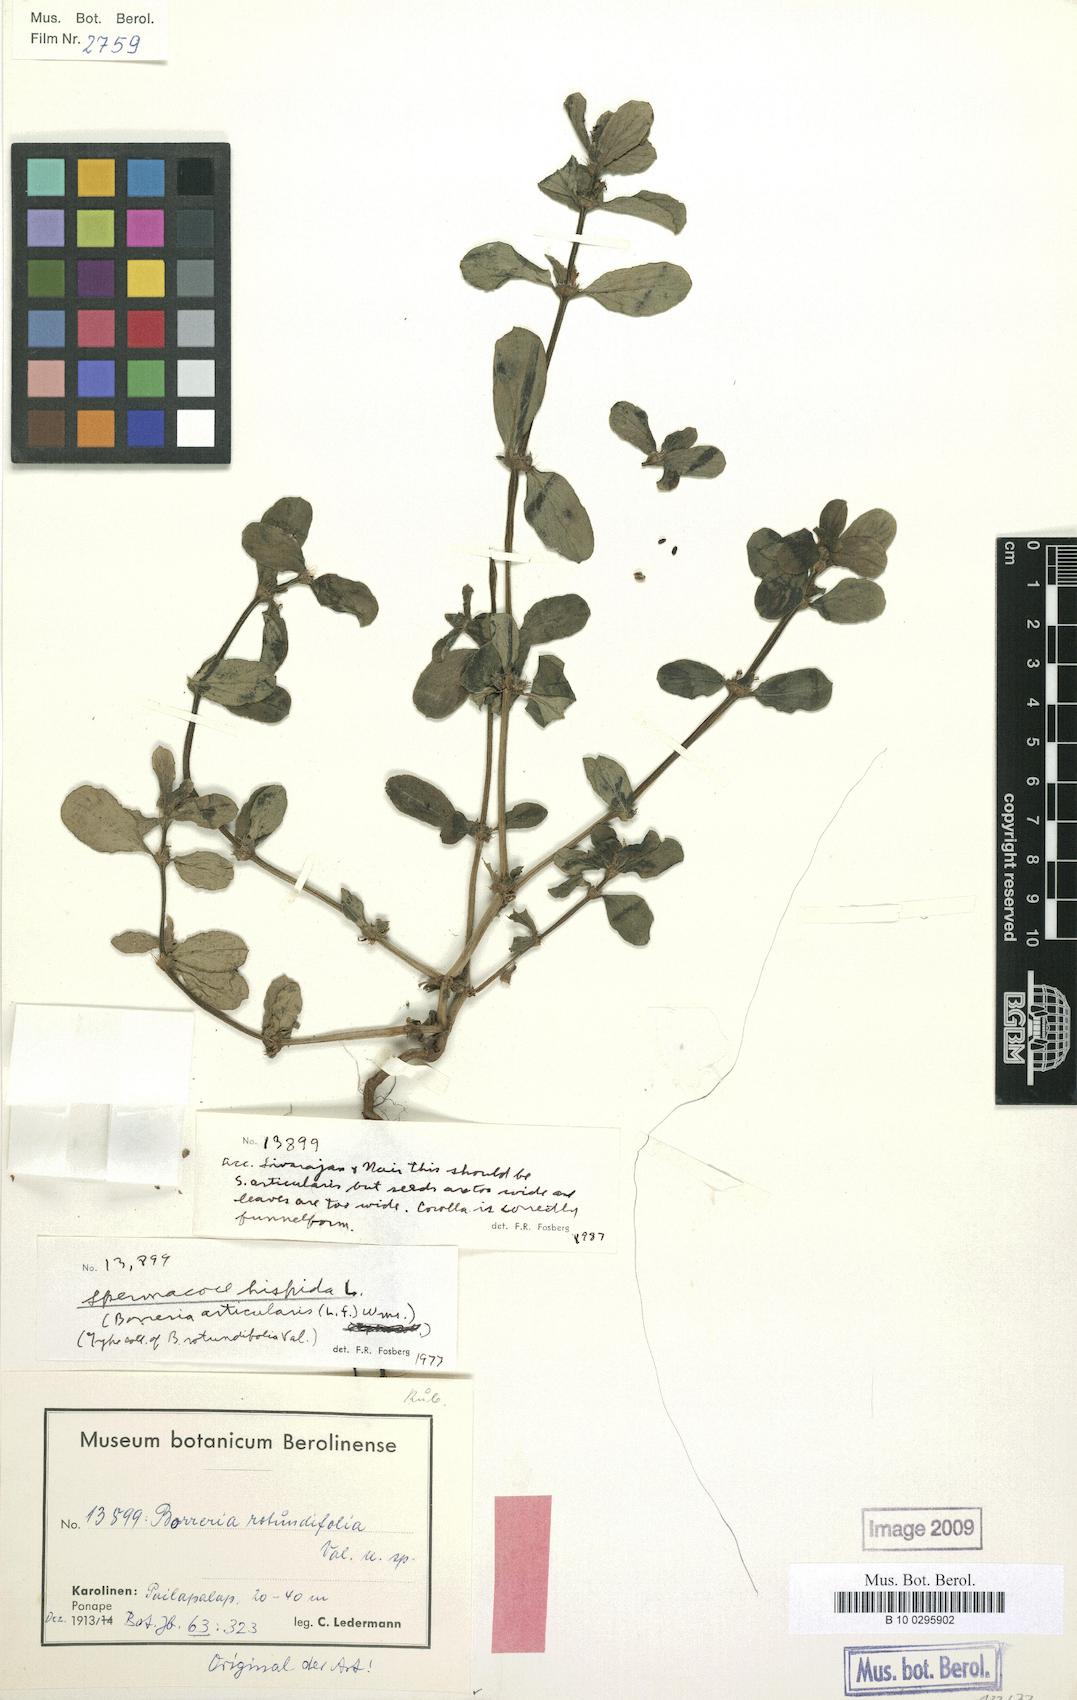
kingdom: Plantae
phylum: Tracheophyta
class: Magnoliopsida
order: Gentianales
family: Rubiaceae
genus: Spermacoce
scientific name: Spermacoce hispida
